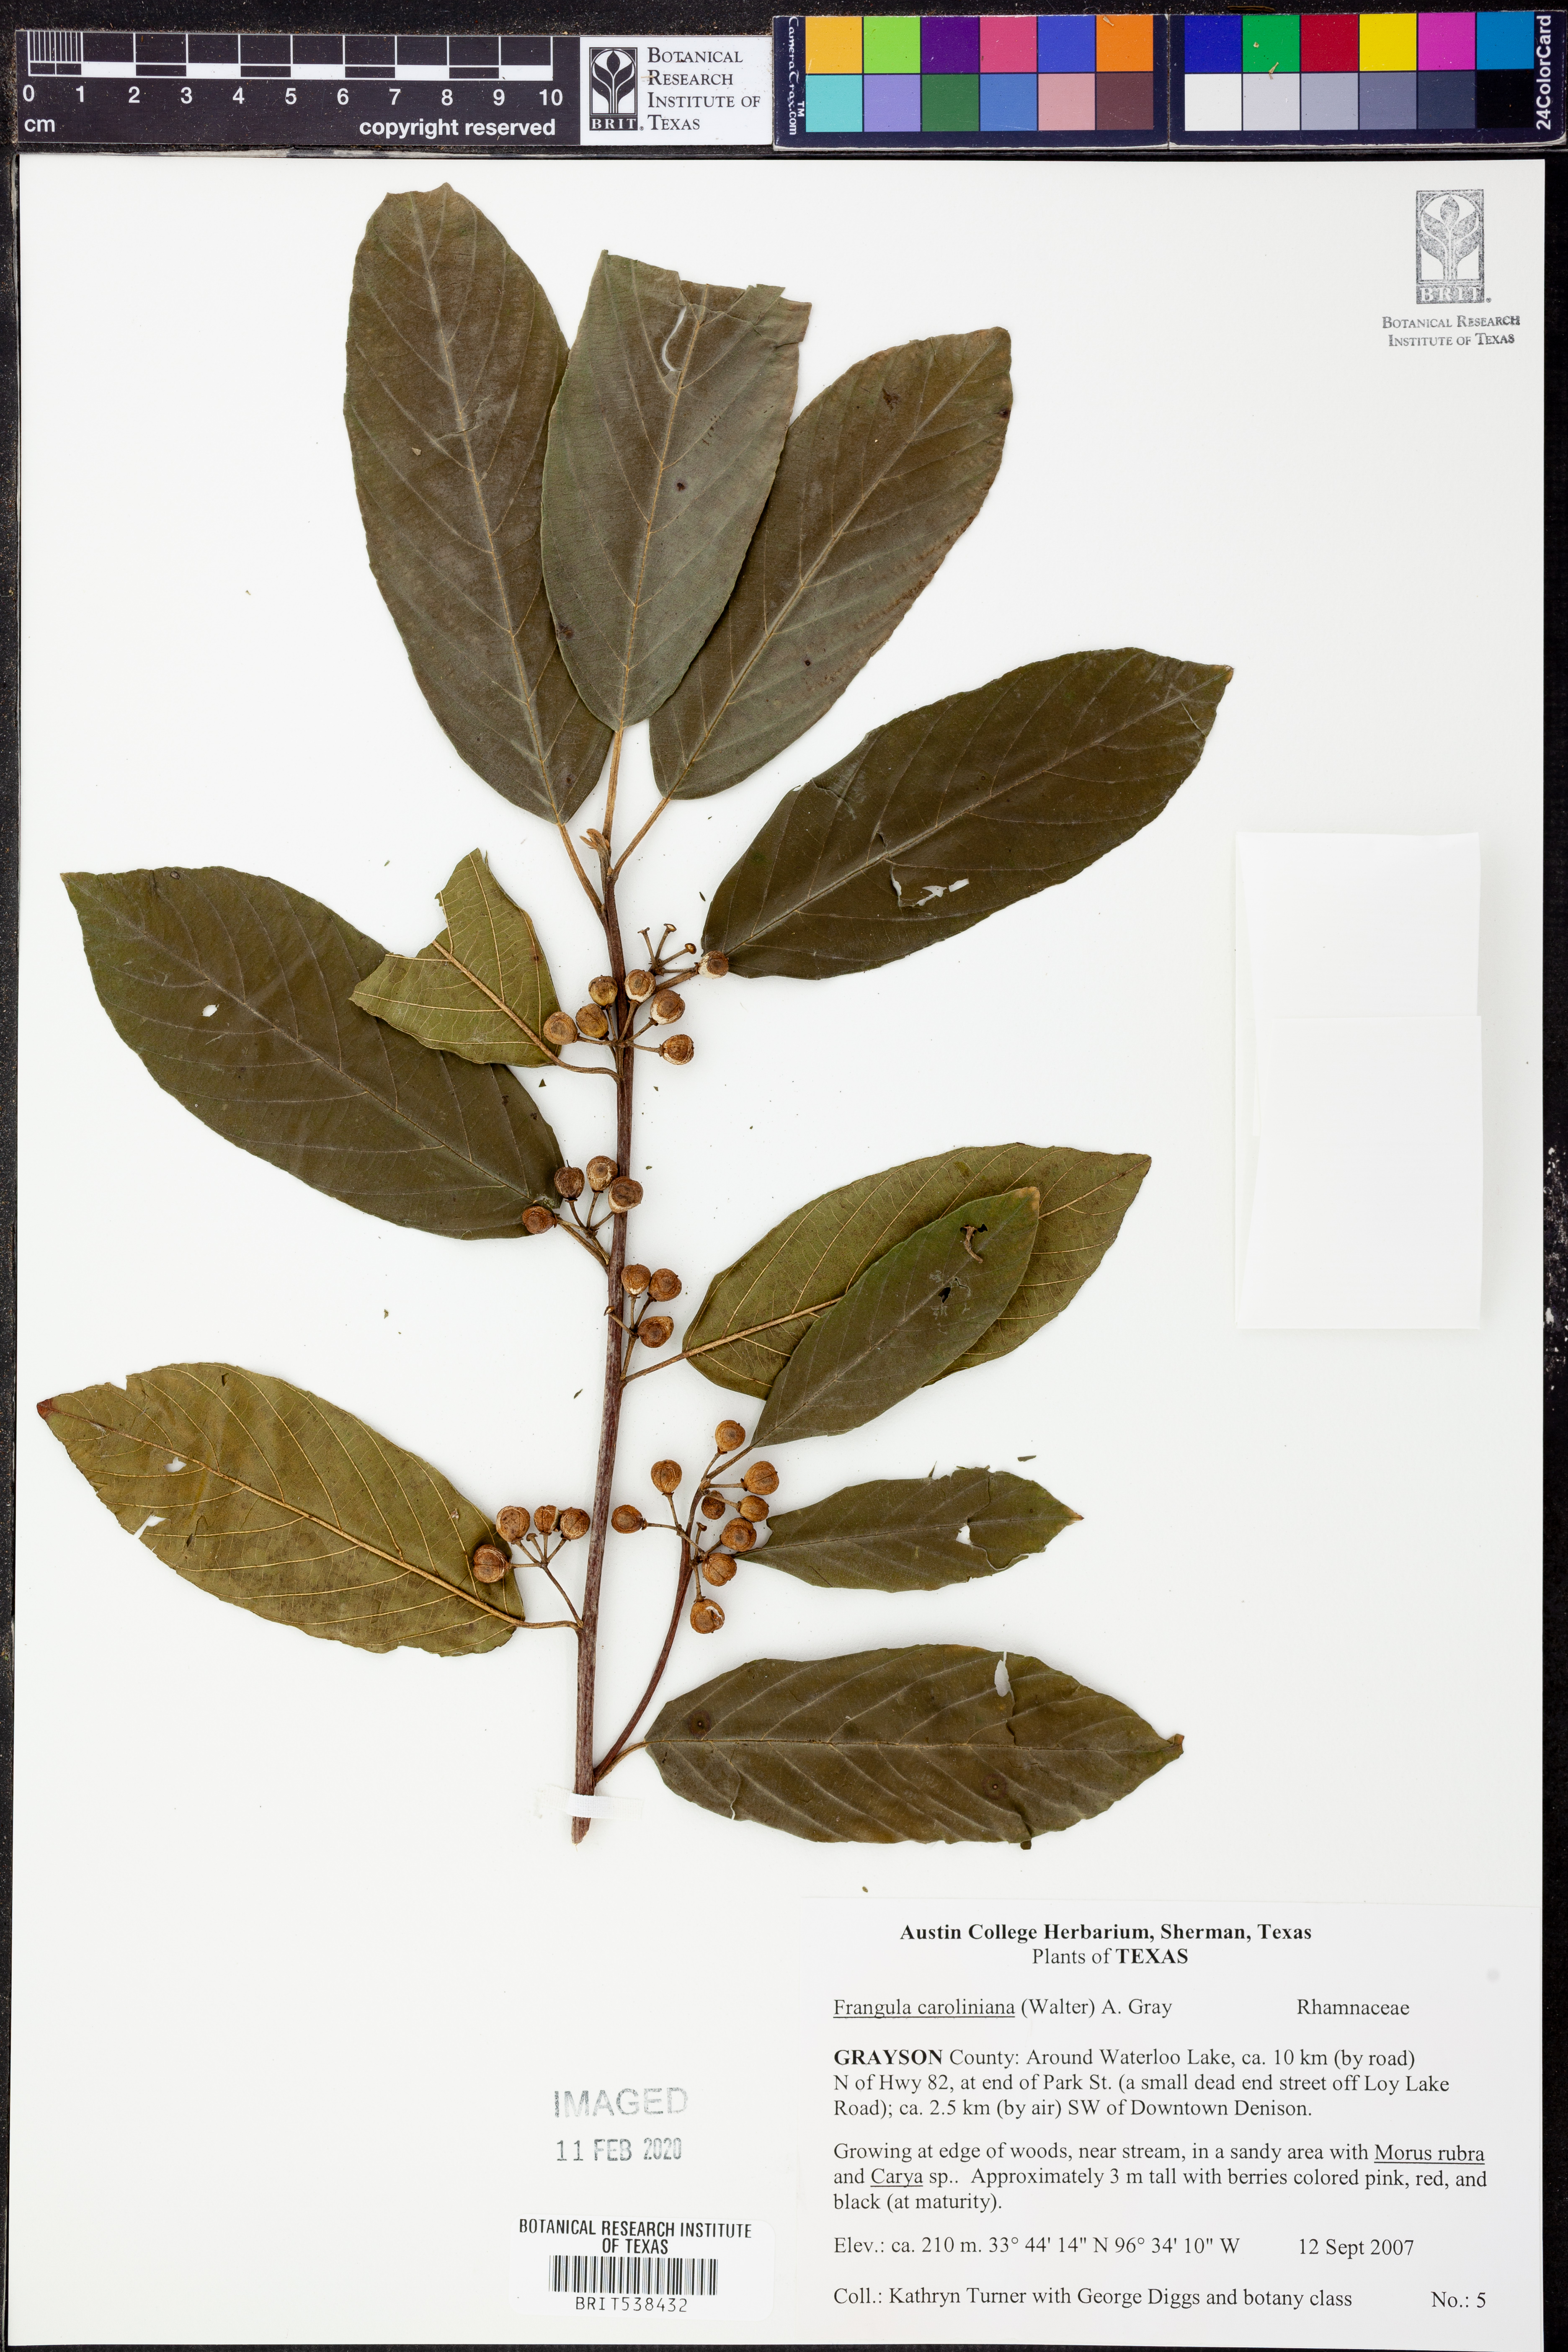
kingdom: Plantae
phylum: Tracheophyta
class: Magnoliopsida
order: Rosales
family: Rhamnaceae
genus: Frangula
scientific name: Frangula caroliniana
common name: Carolina buckthorn
